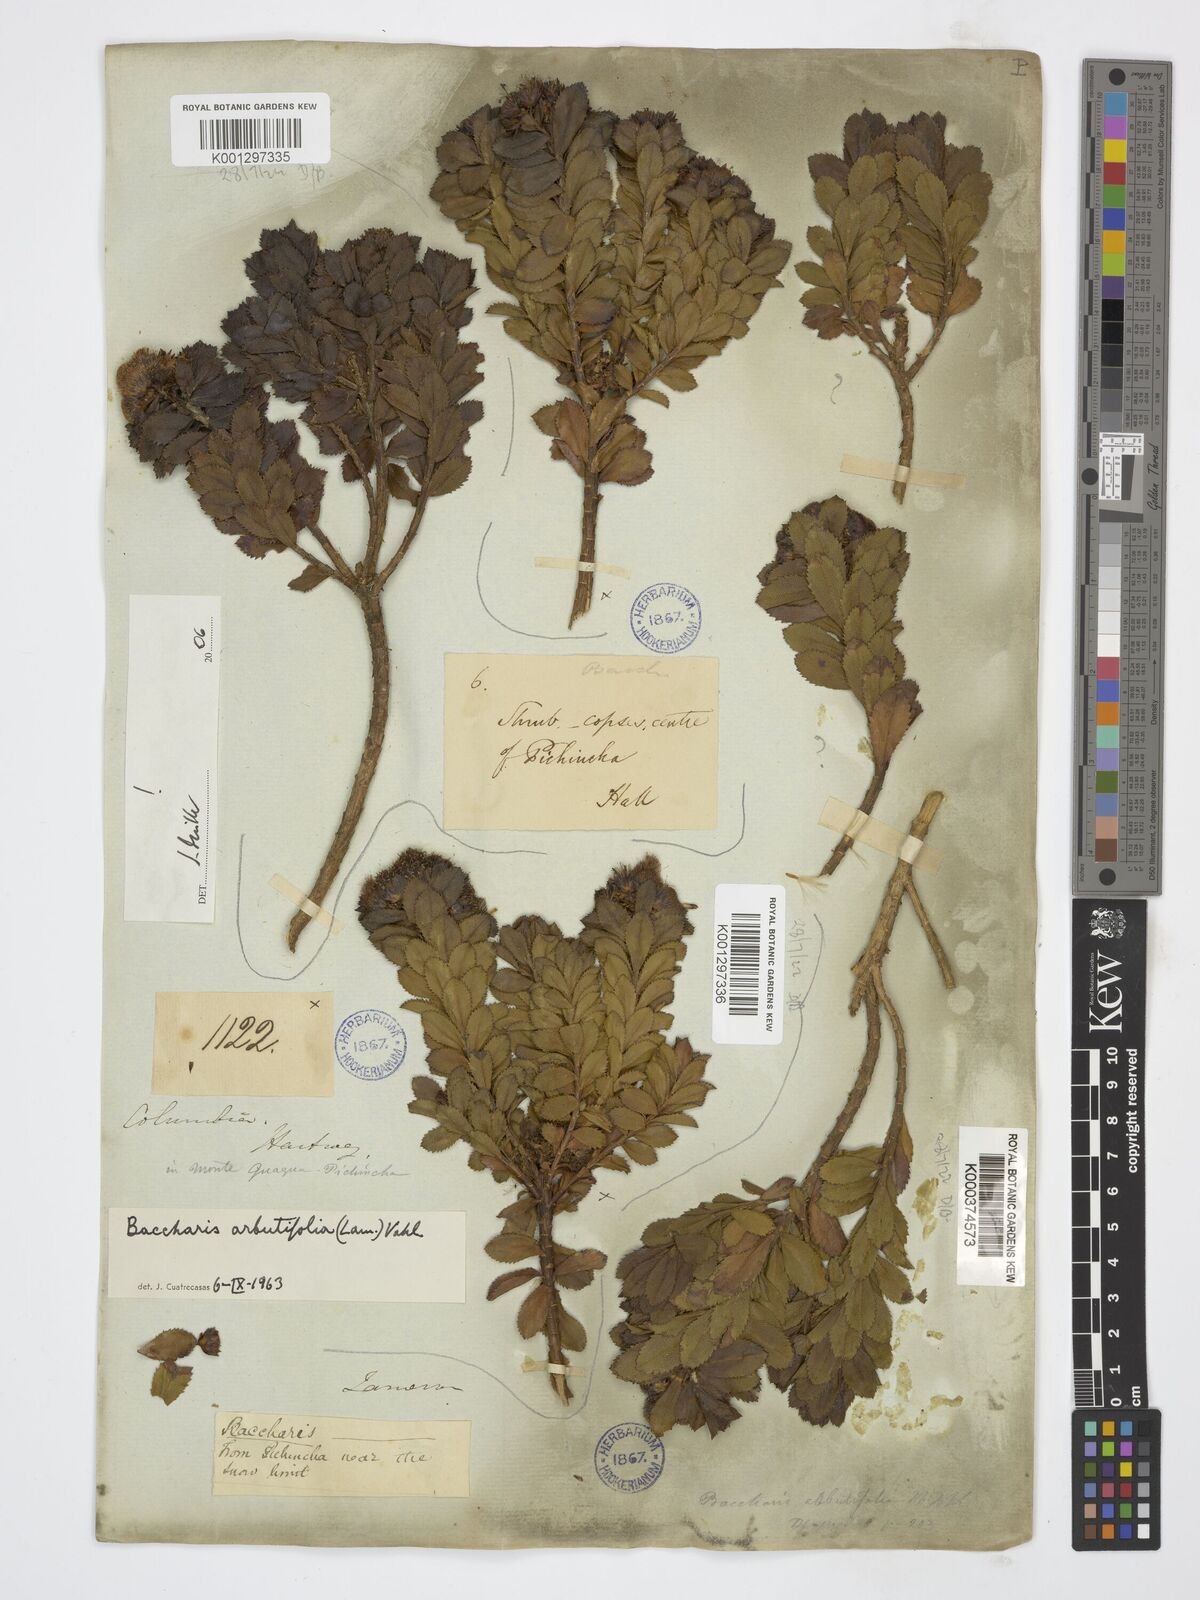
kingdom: Plantae
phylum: Tracheophyta
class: Magnoliopsida
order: Asterales
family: Asteraceae
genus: Baccharis
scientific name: Baccharis arbutifolia
